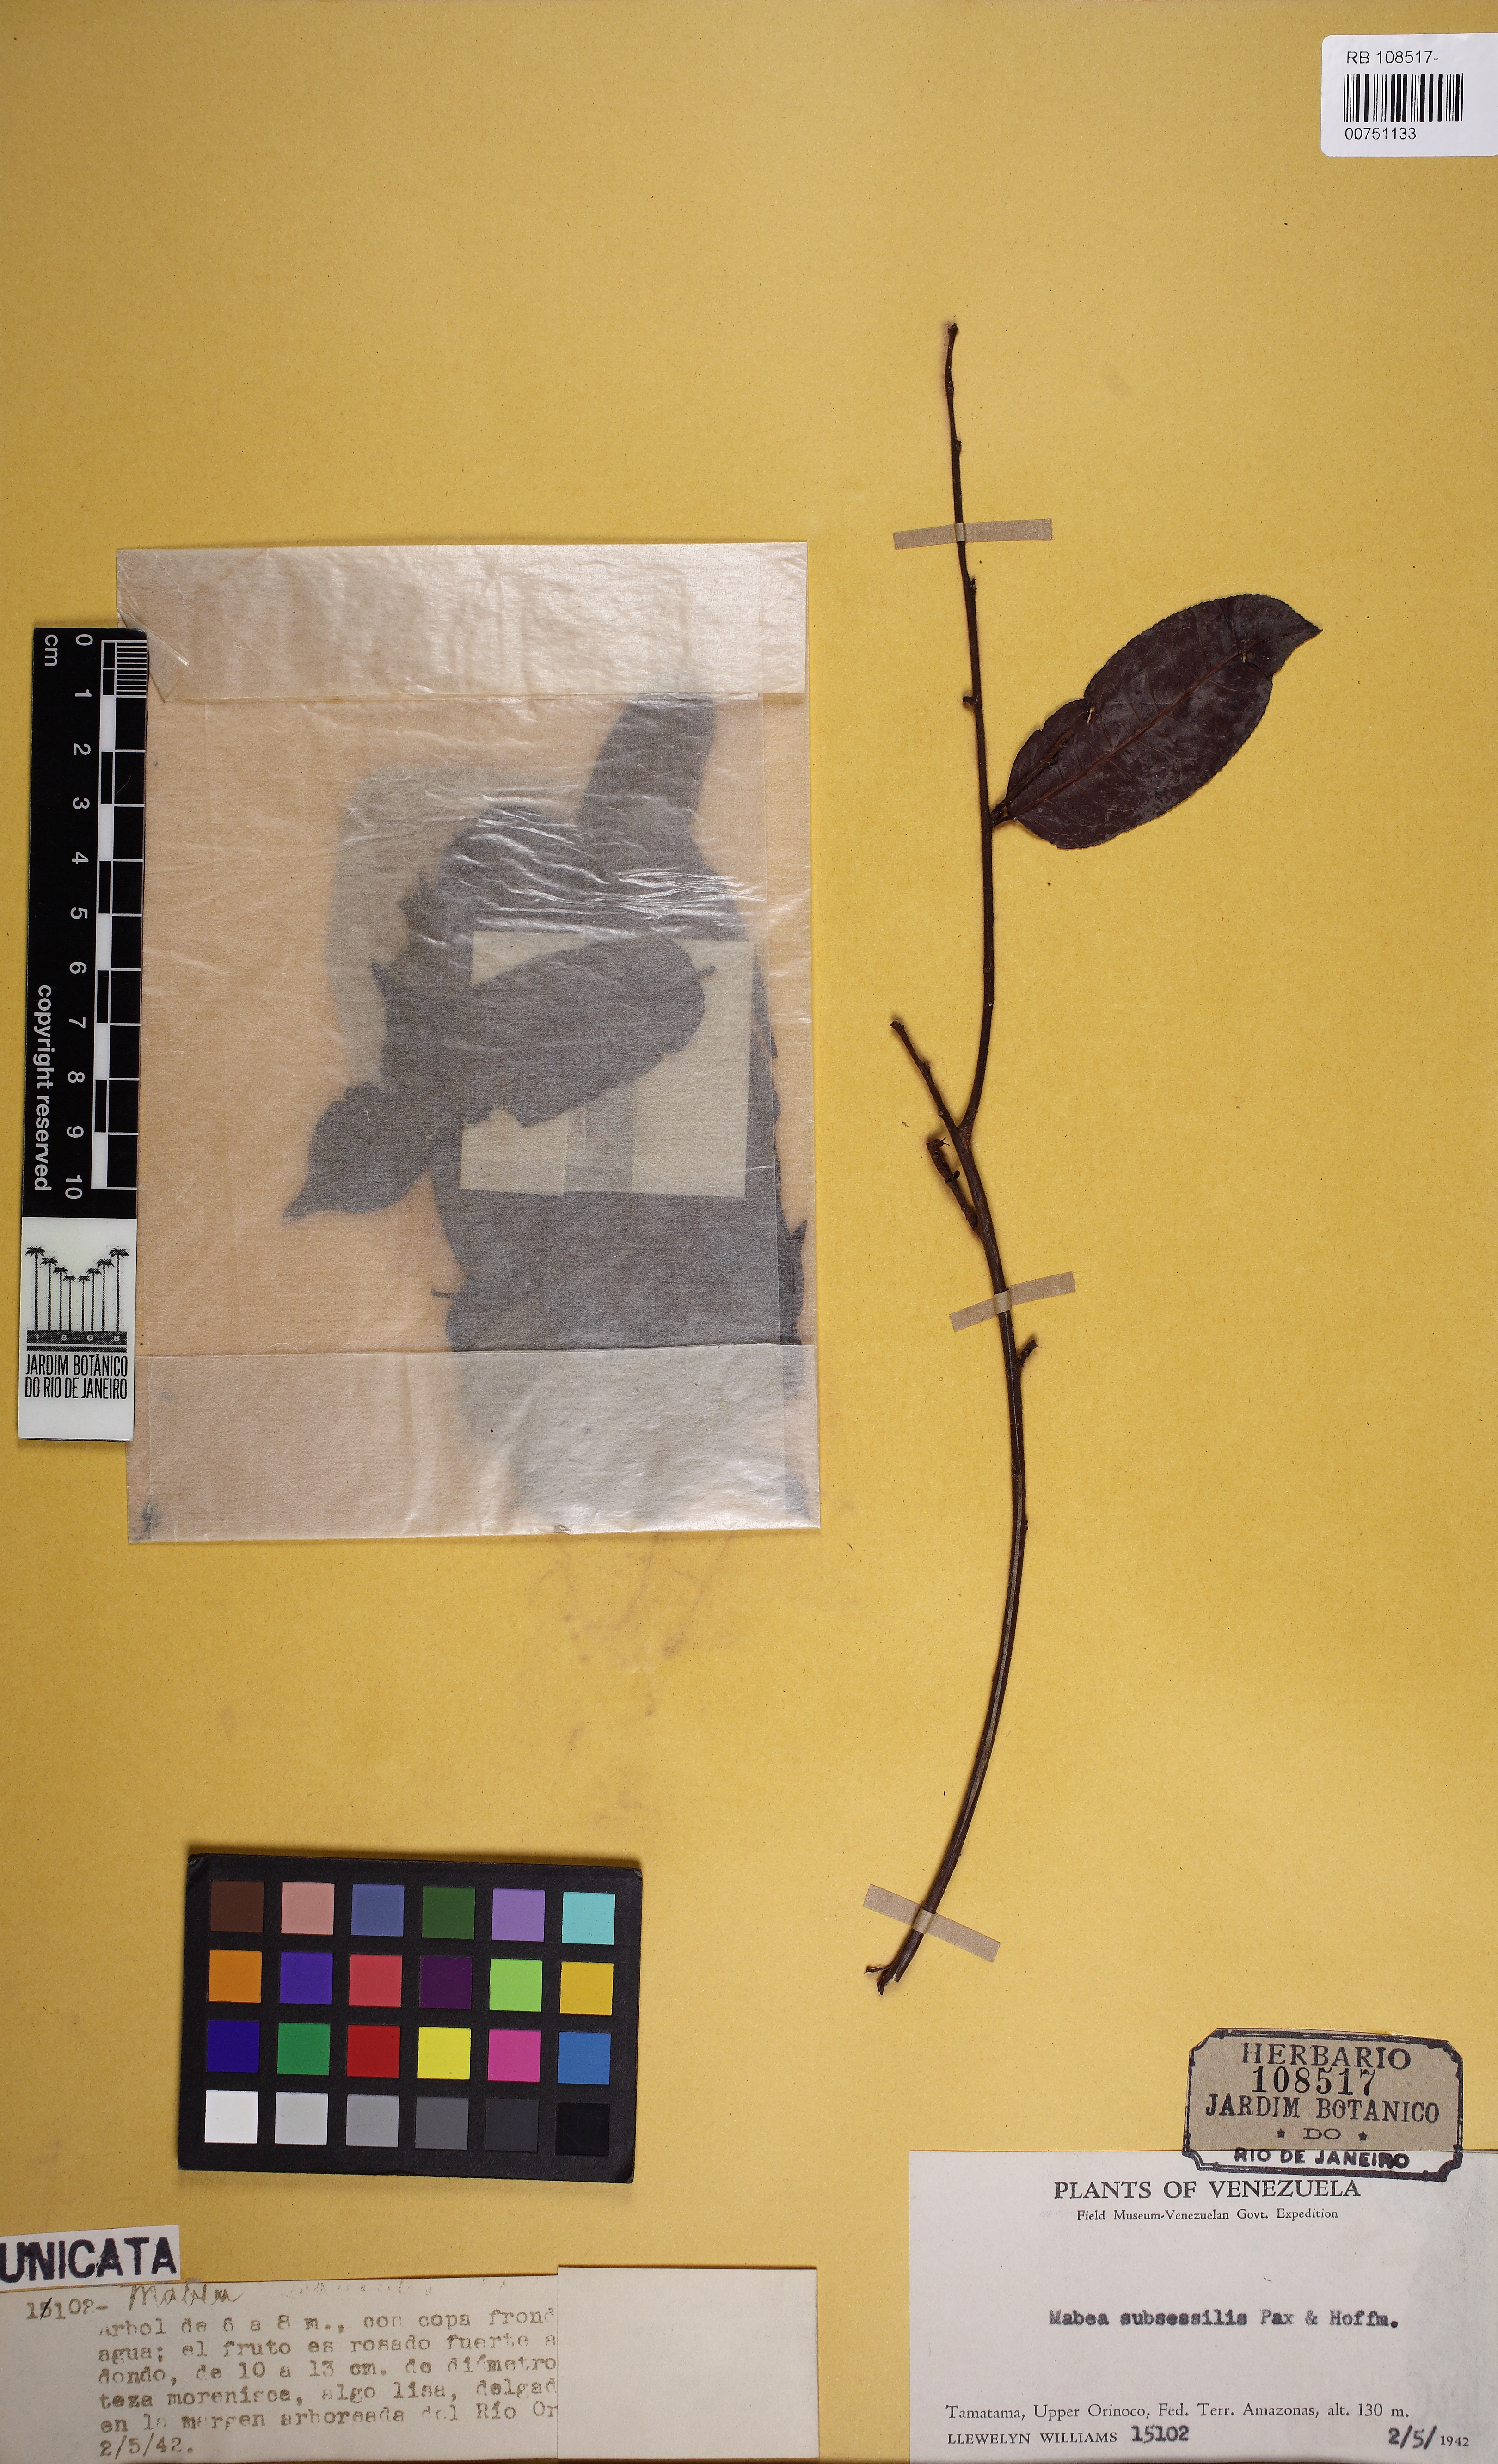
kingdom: Plantae
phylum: Tracheophyta
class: Magnoliopsida
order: Malpighiales
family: Euphorbiaceae
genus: Mabea
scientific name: Mabea subsessilis
